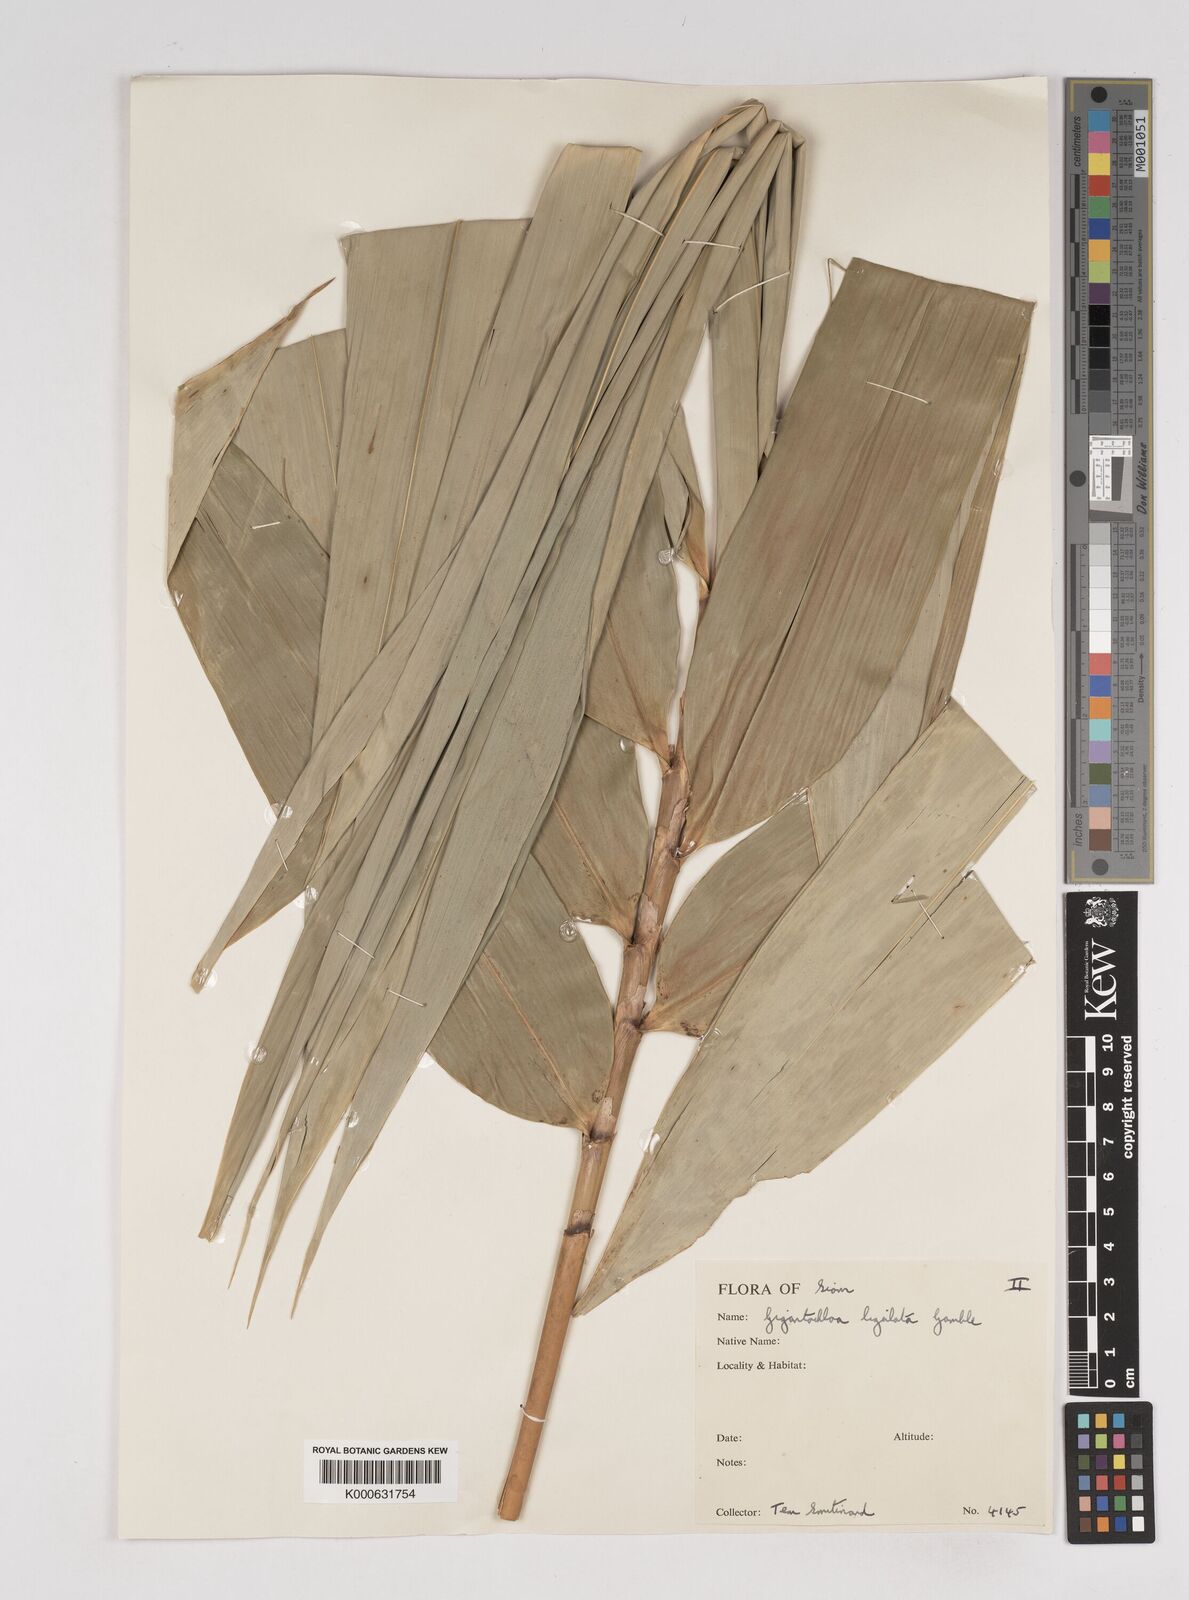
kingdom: Plantae
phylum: Tracheophyta
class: Liliopsida
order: Poales
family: Poaceae
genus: Gigantochloa
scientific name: Gigantochloa ligulata
